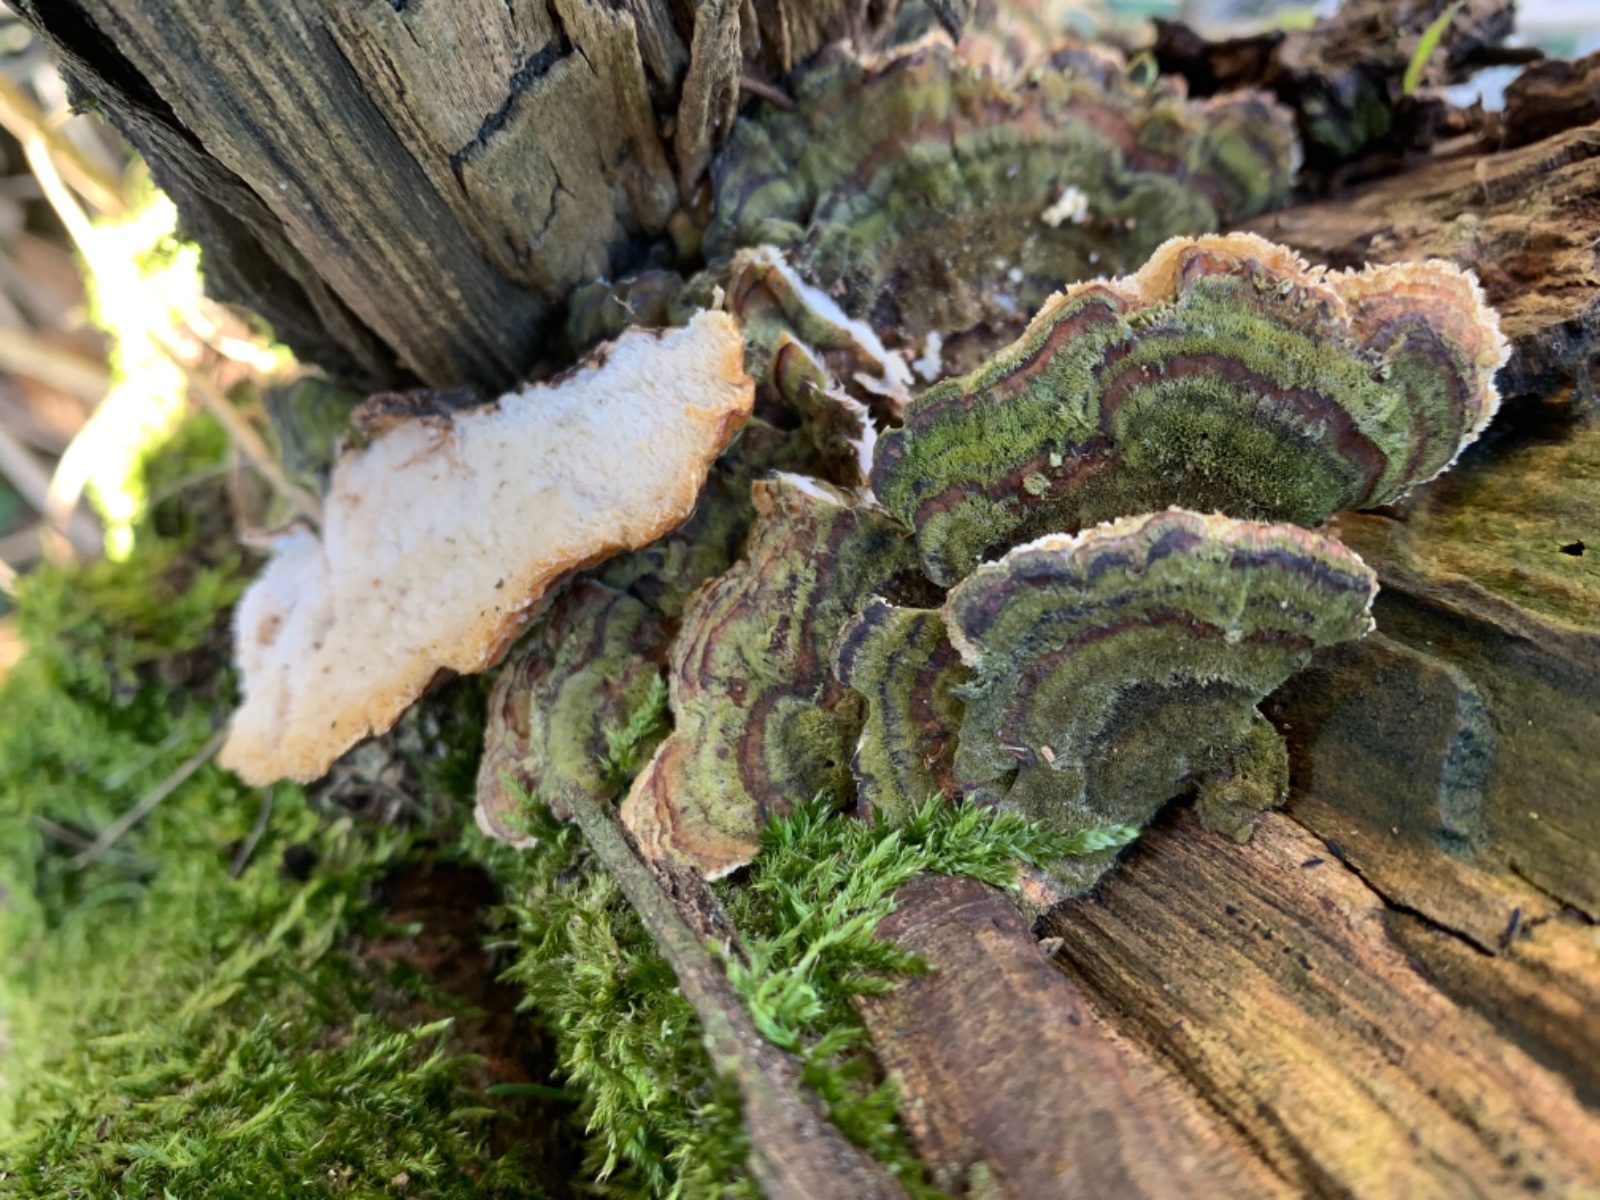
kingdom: Fungi
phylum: Basidiomycota
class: Agaricomycetes
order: Polyporales
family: Polyporaceae
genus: Trametes
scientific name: Trametes versicolor
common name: broget læderporesvamp
